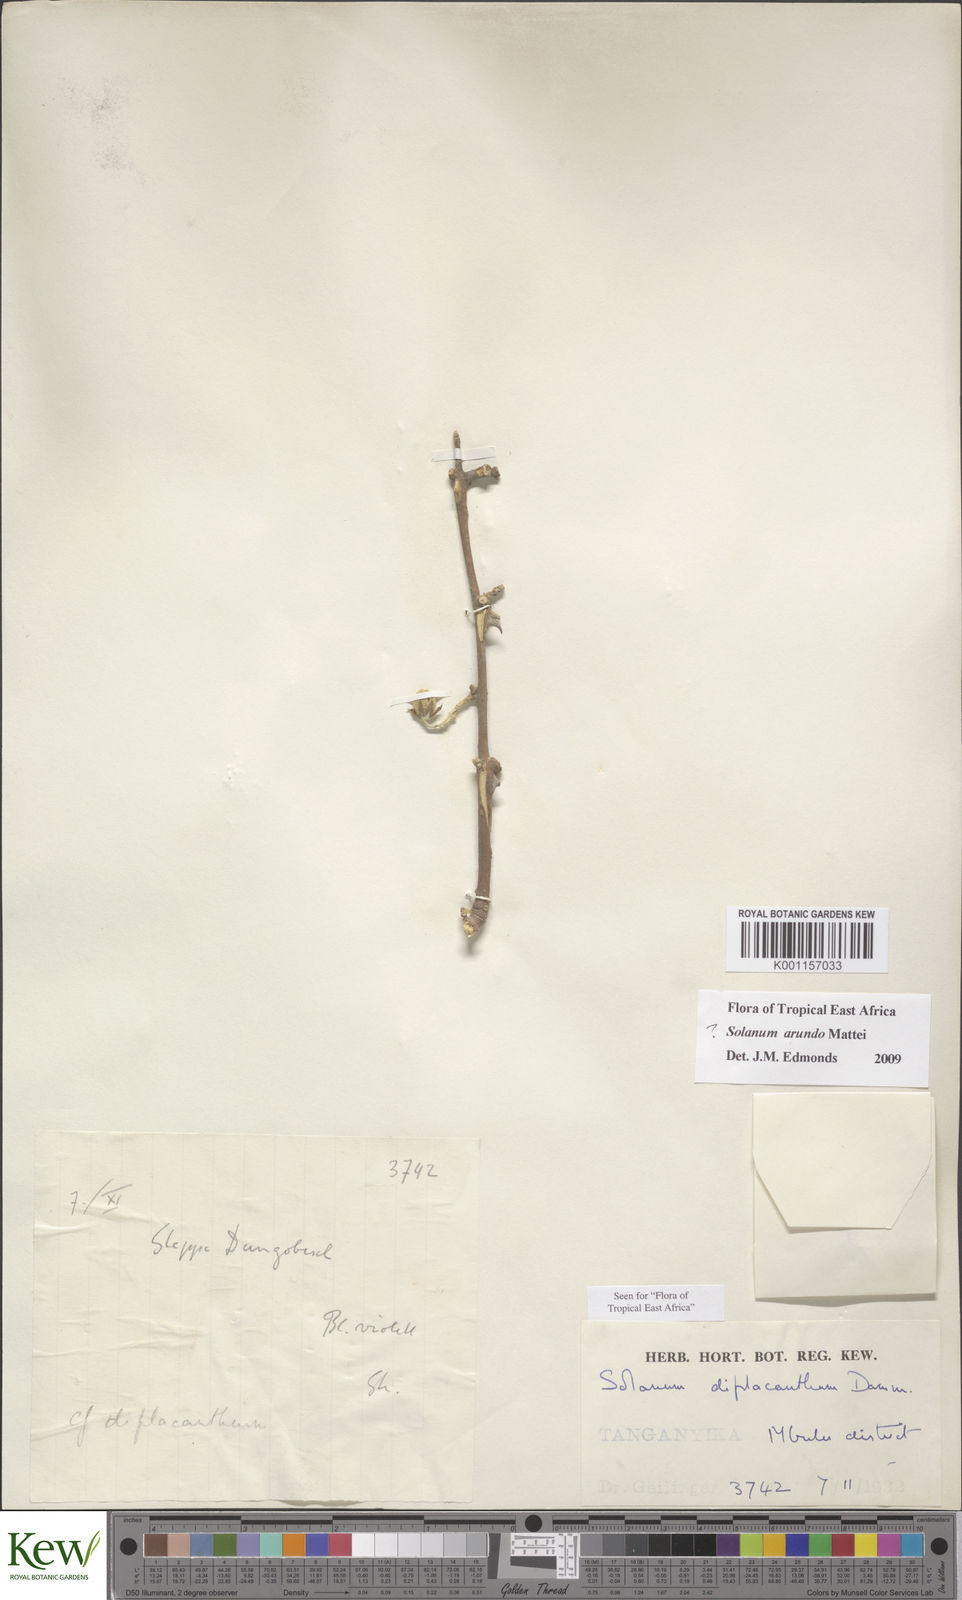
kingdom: Plantae
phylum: Tracheophyta
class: Magnoliopsida
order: Solanales
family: Solanaceae
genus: Solanum
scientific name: Solanum arundo
